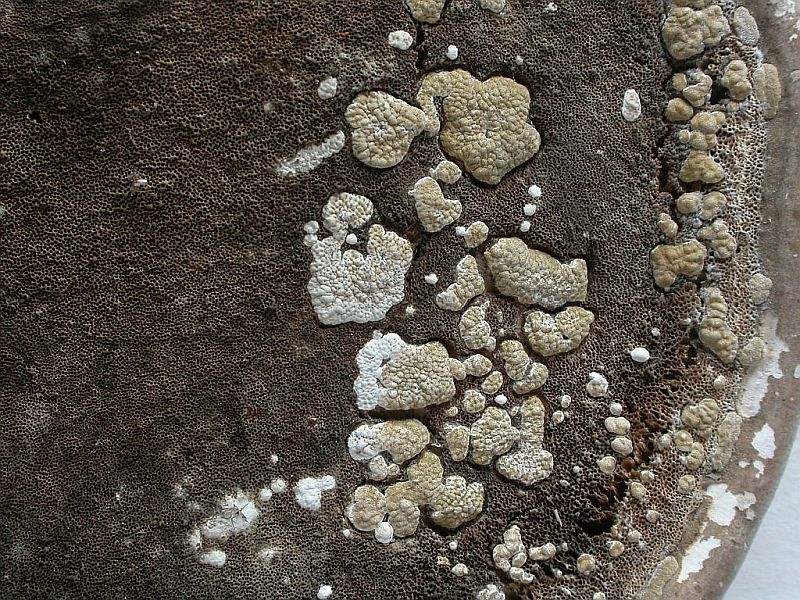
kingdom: Fungi
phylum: Ascomycota
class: Sordariomycetes
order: Hypocreales
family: Hypocreaceae
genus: Trichoderma
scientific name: Trichoderma pulvinatum
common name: snyltende kødkerne
